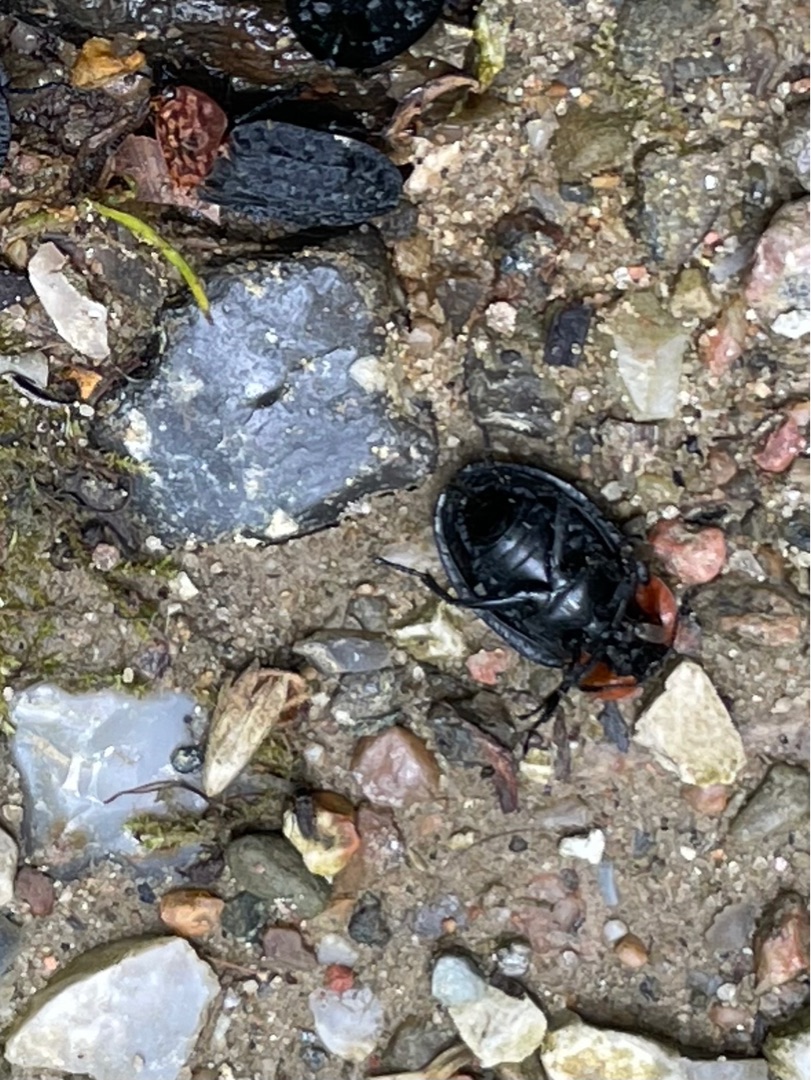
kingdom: Animalia
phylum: Arthropoda
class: Insecta
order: Coleoptera
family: Staphylinidae
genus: Oiceoptoma
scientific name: Oiceoptoma thoracicum
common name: Rødbrystet ådselbille
